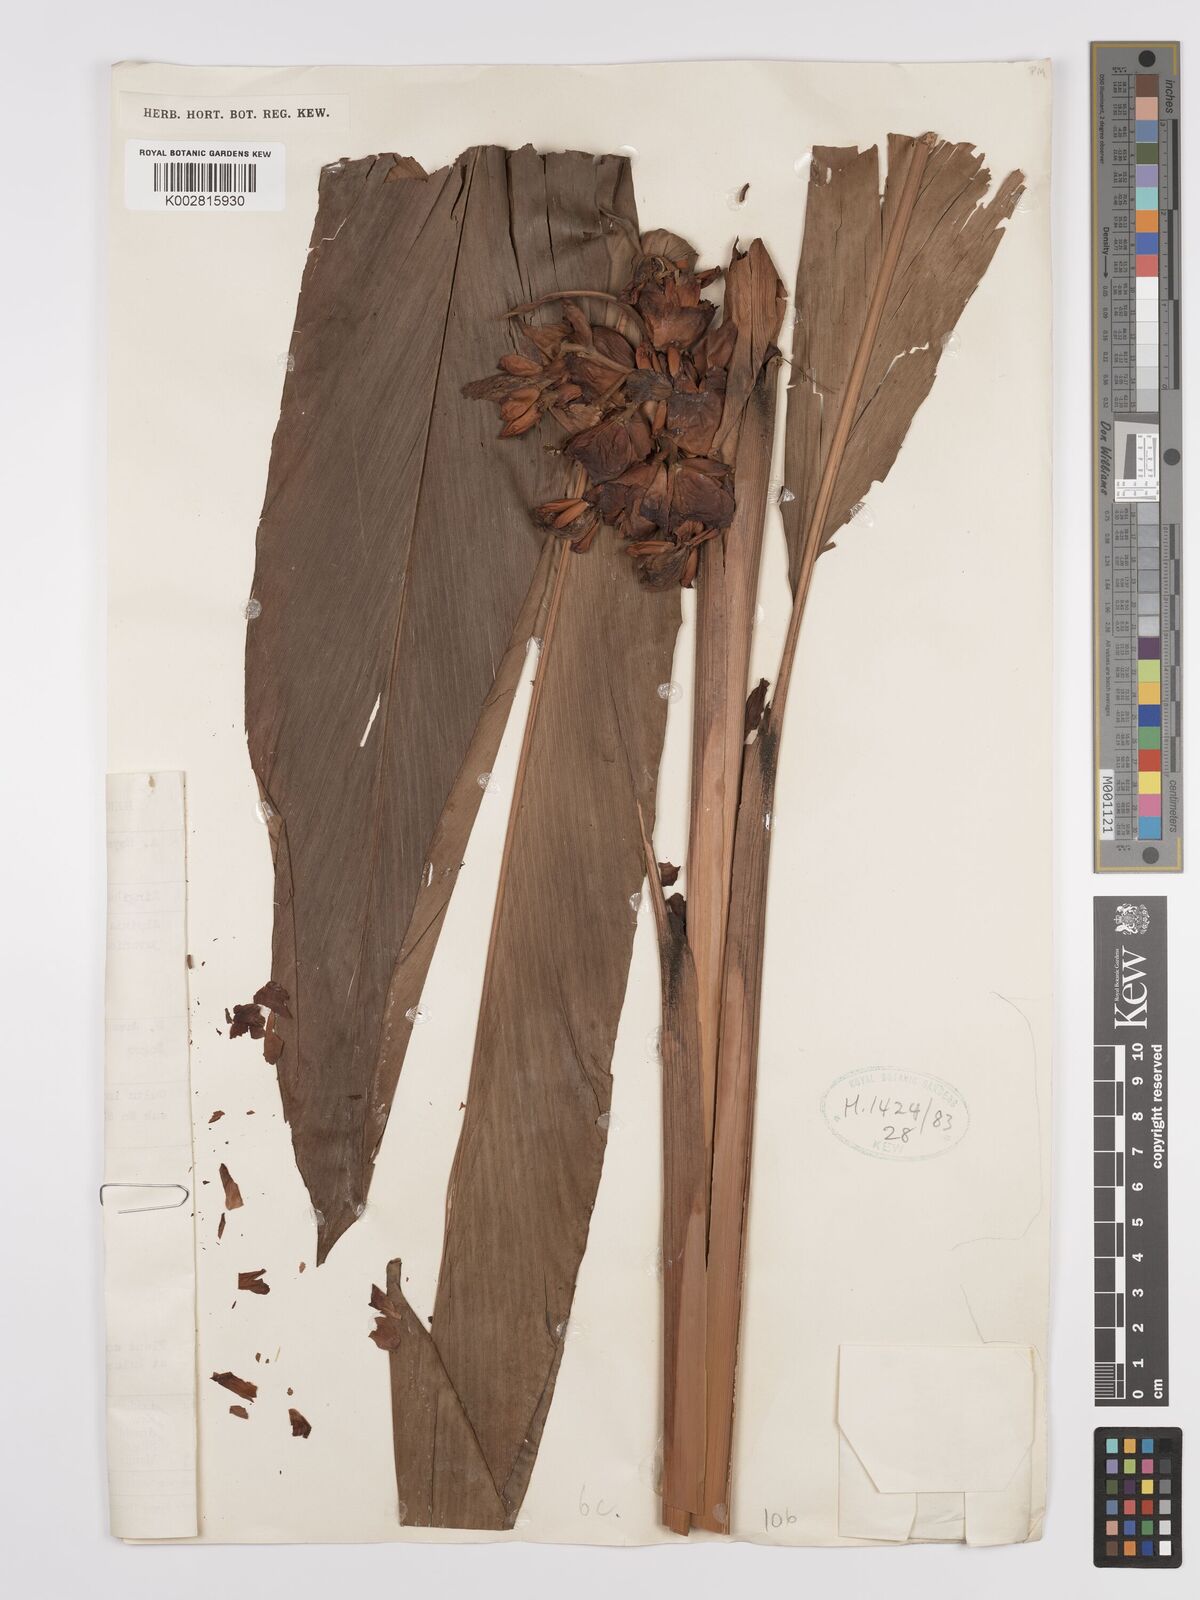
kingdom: Plantae
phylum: Tracheophyta
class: Liliopsida
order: Zingiberales
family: Zingiberaceae
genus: Alpinia
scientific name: Alpinia javanica
